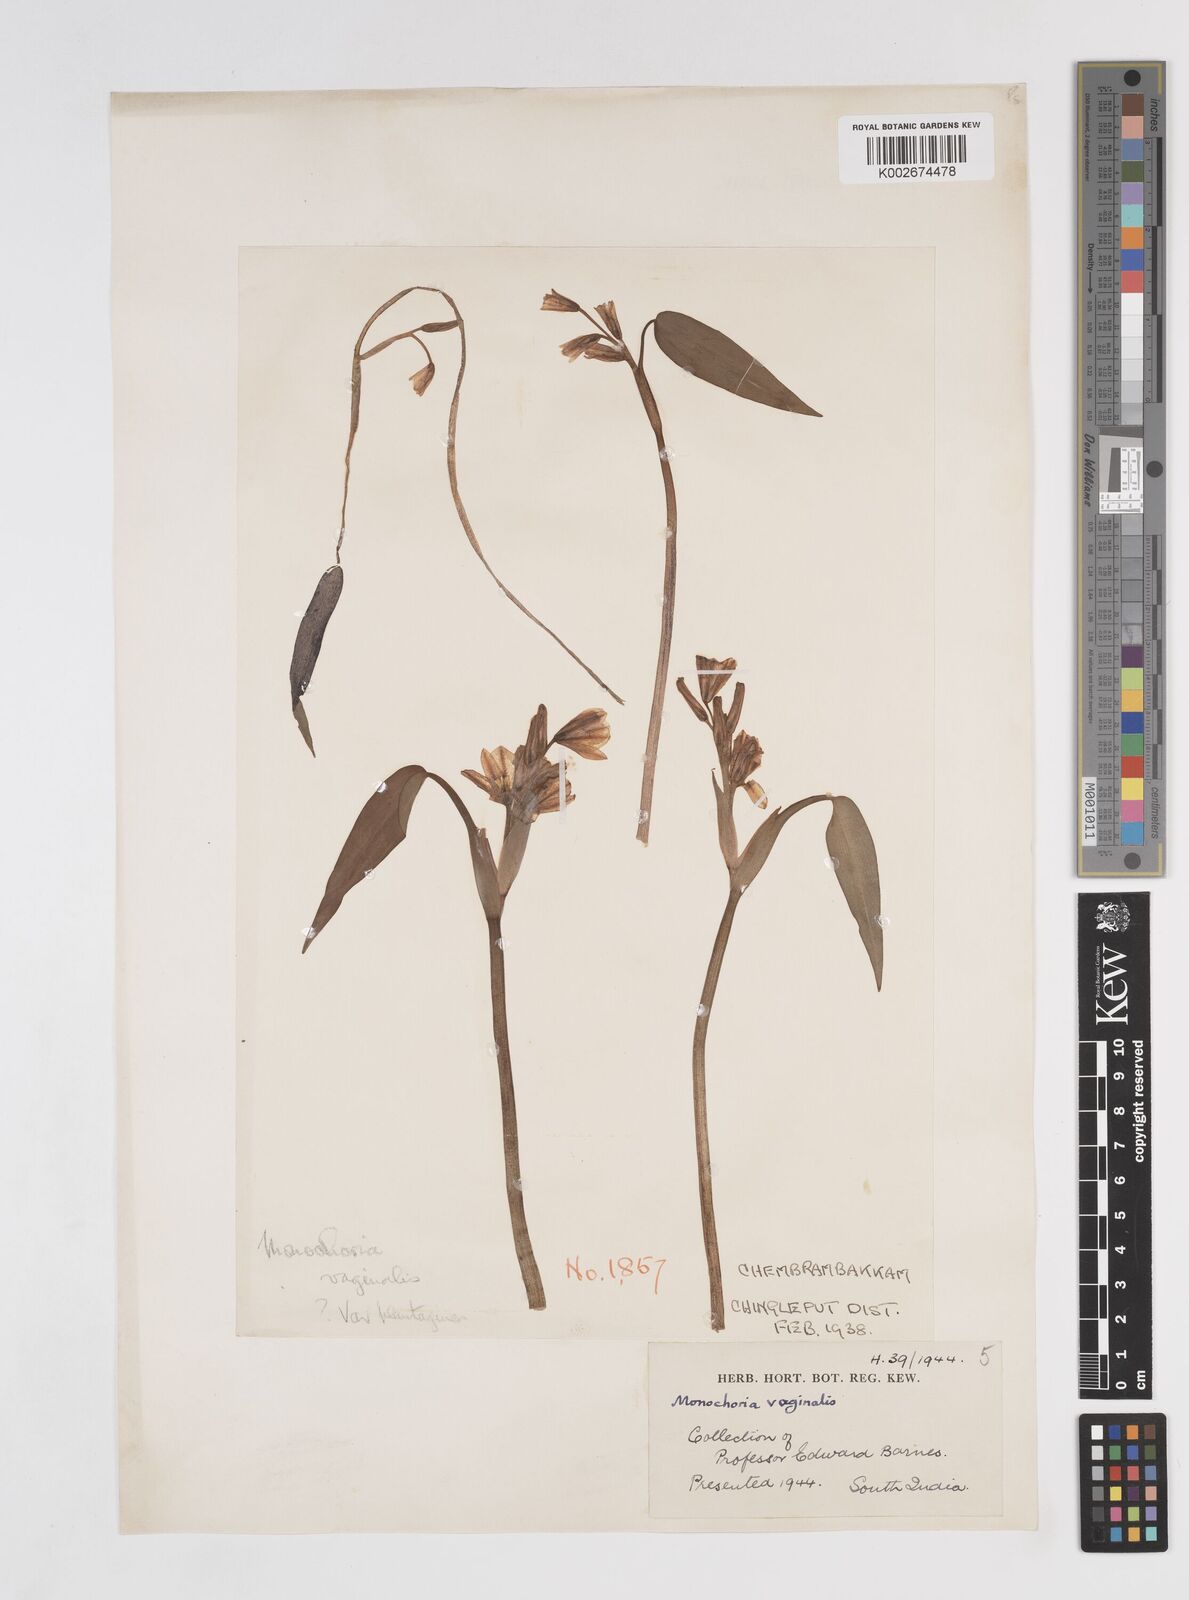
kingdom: Plantae
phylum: Tracheophyta
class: Liliopsida
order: Commelinales
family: Pontederiaceae
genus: Pontederia
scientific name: Pontederia vaginalis
